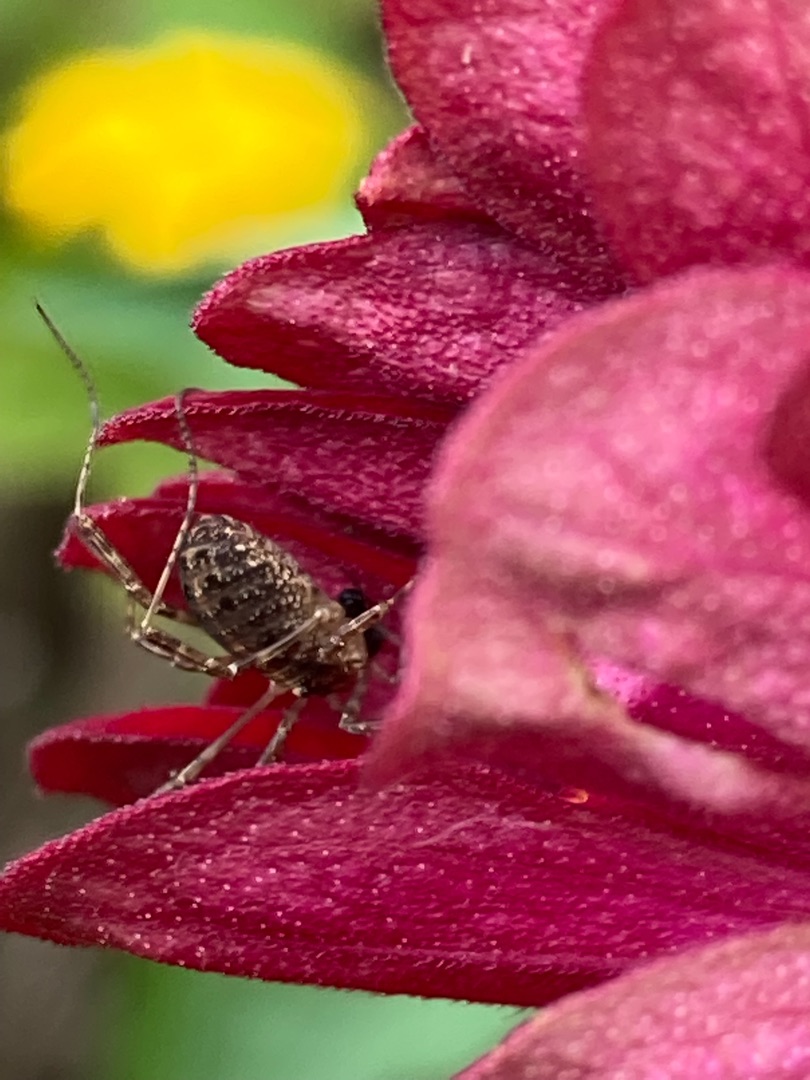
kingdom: Animalia
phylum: Arthropoda
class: Arachnida
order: Opiliones
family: Phalangiidae
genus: Paroligolophus
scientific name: Paroligolophus agrestis
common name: Hedemejer
